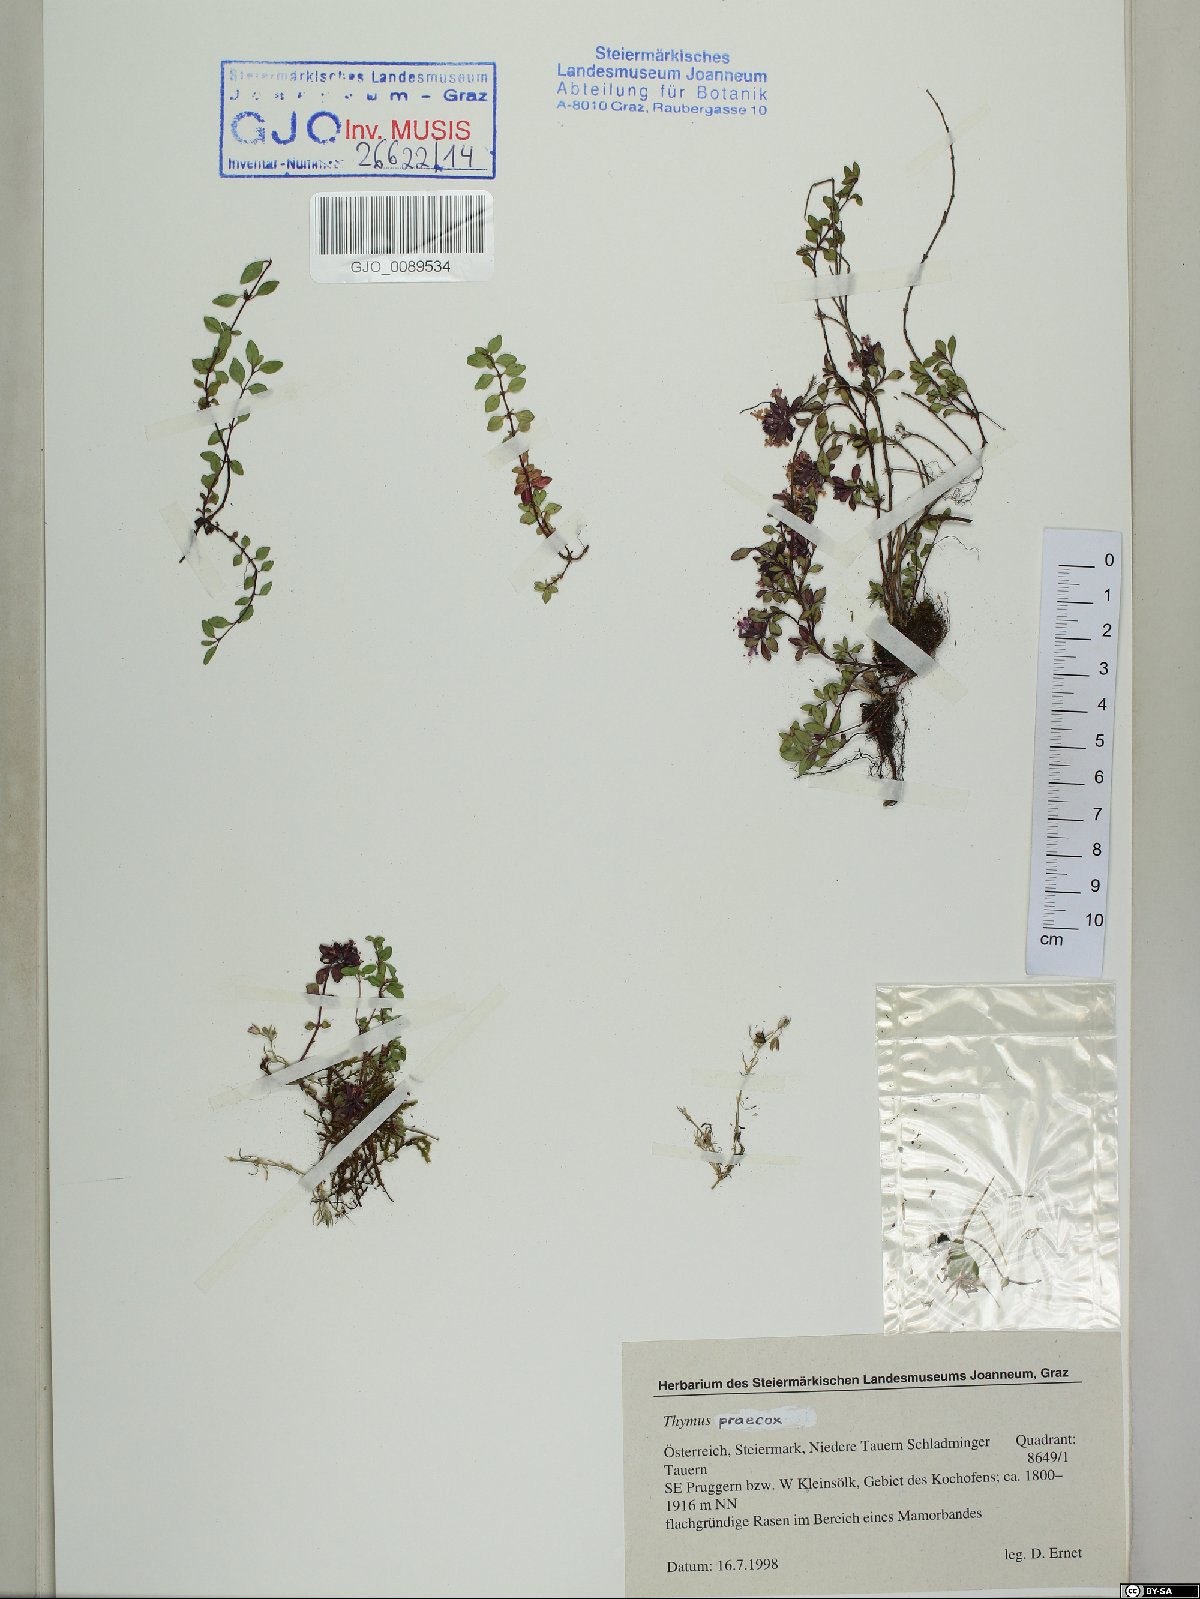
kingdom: Plantae
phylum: Tracheophyta
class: Magnoliopsida
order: Lamiales
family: Lamiaceae
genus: Thymus
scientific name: Thymus praecox
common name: Wild thyme
